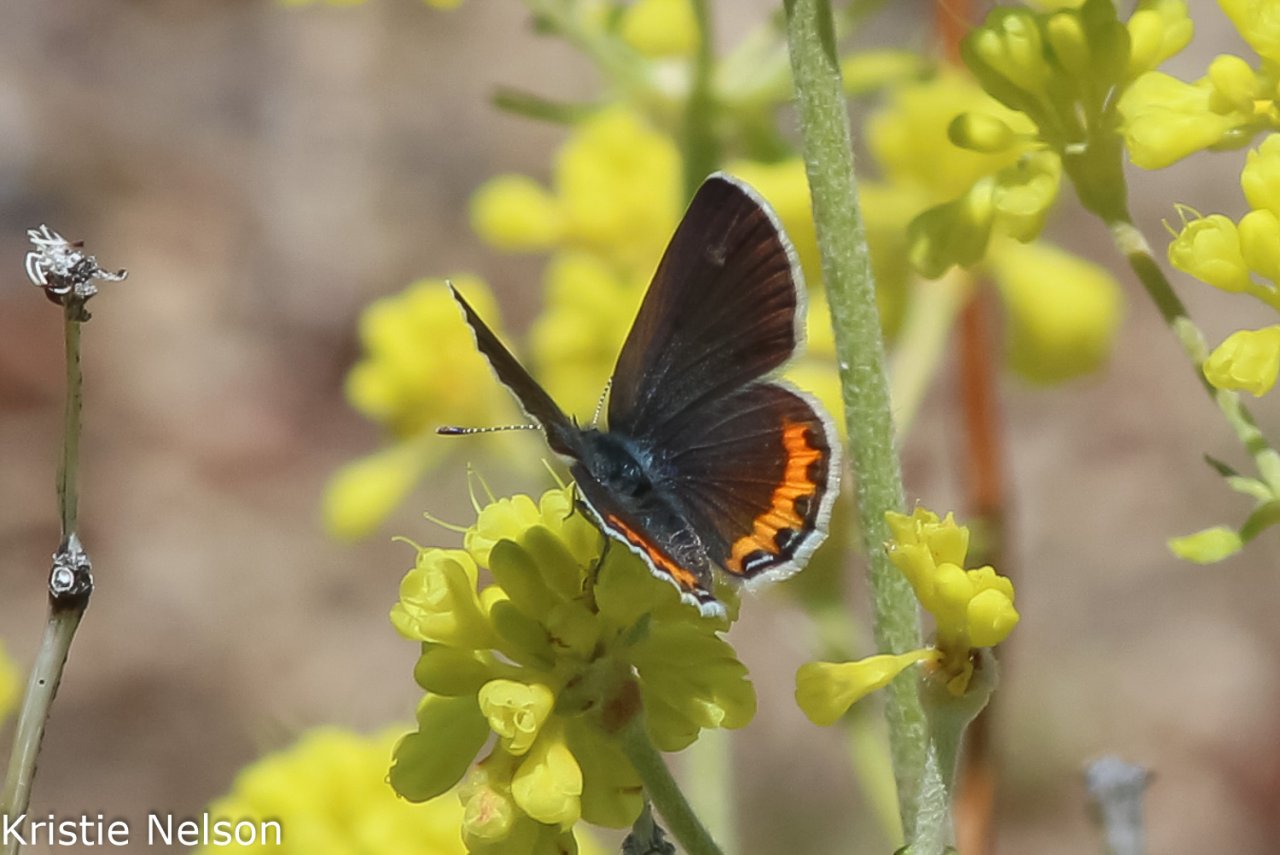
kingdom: Animalia
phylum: Arthropoda
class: Insecta
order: Lepidoptera
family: Lycaenidae
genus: Plebejus
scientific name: Plebejus
